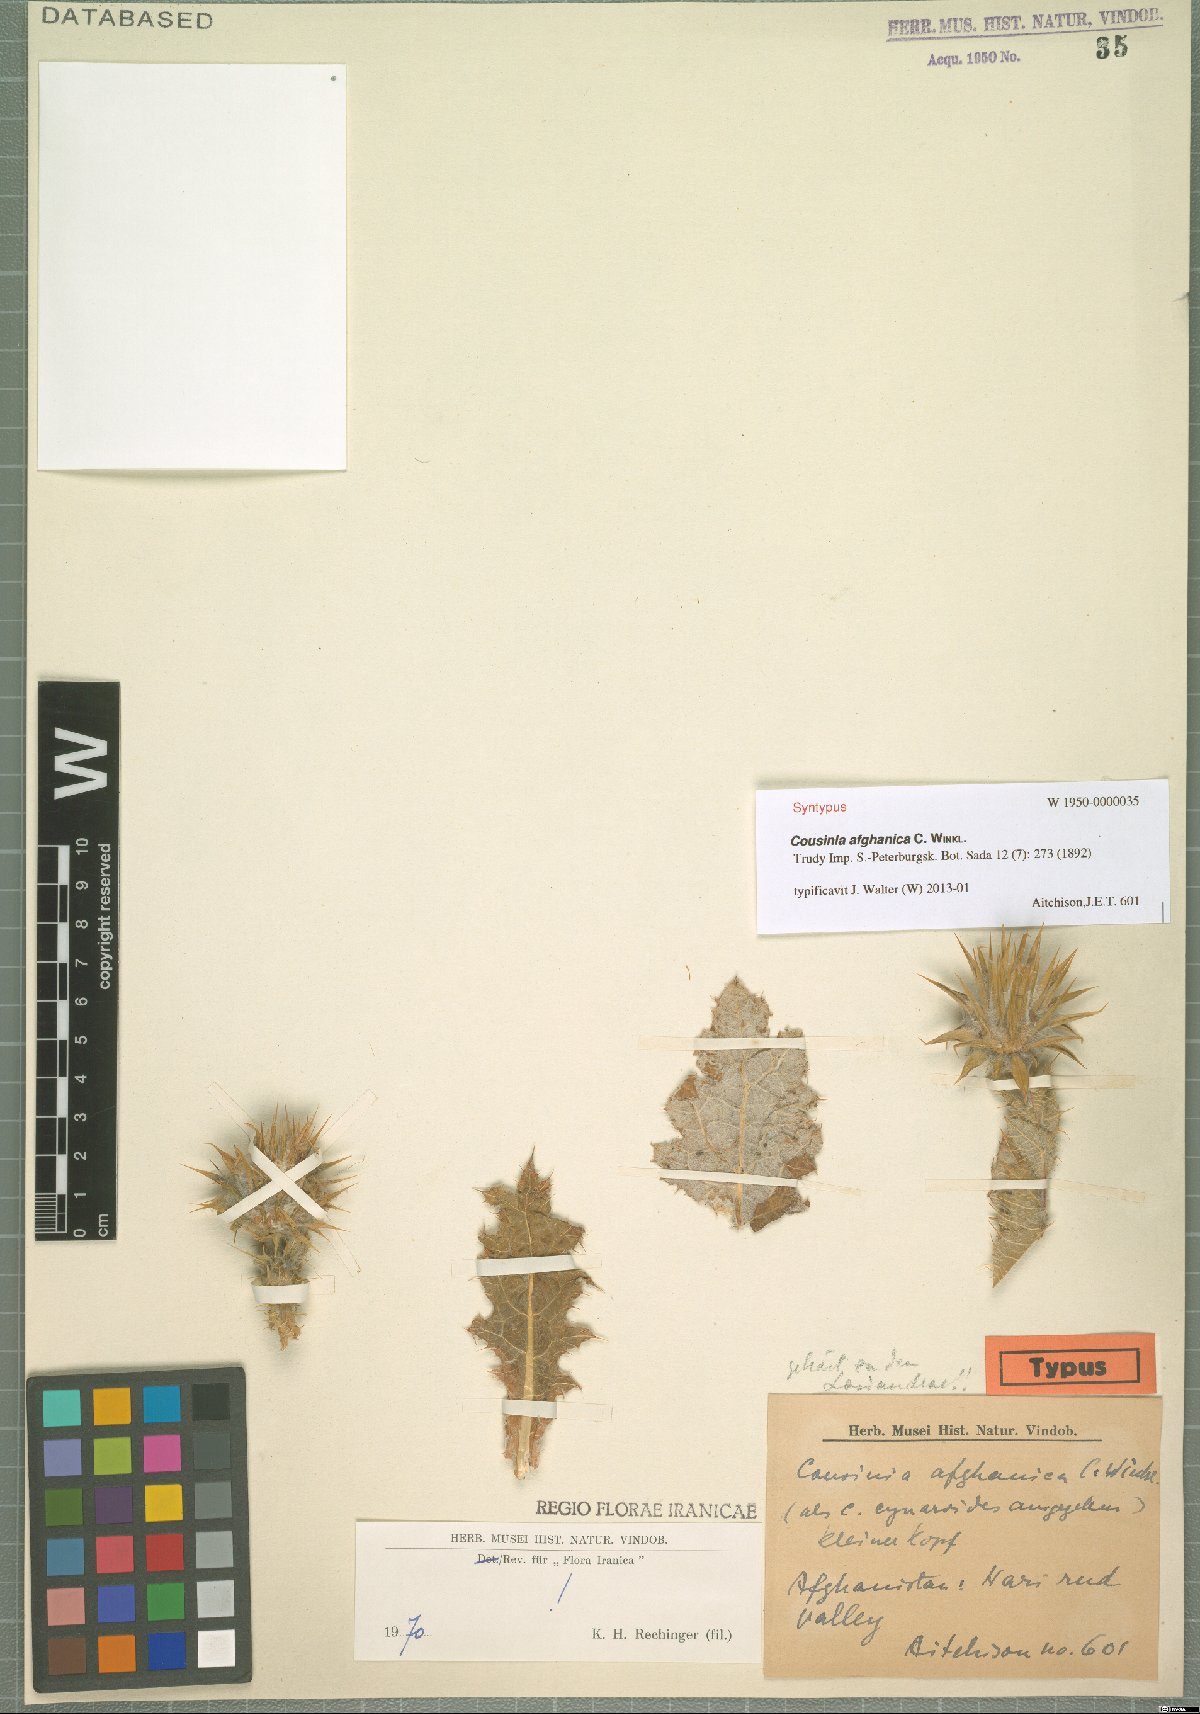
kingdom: Plantae
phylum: Tracheophyta
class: Magnoliopsida
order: Asterales
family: Asteraceae
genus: Cousinia
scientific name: Cousinia afghanica
